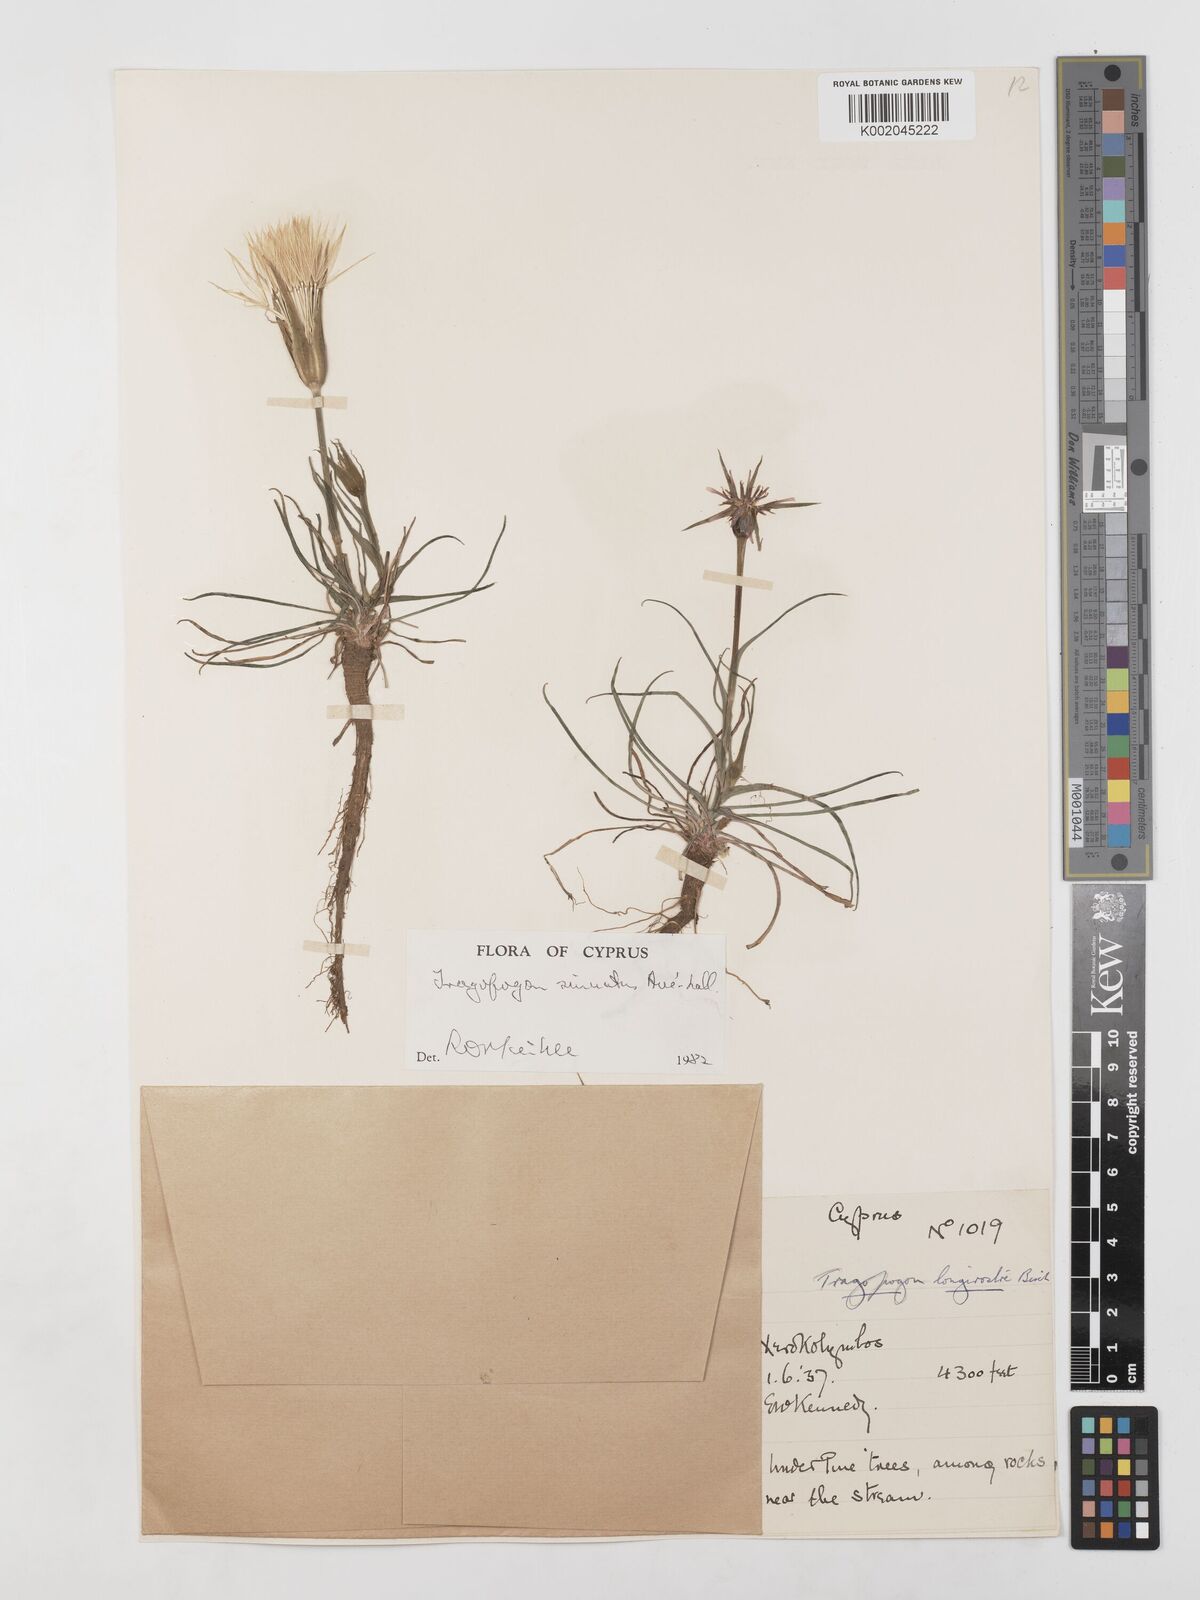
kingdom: Plantae
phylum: Tracheophyta
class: Magnoliopsida
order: Asterales
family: Asteraceae
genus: Tragopogon
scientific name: Tragopogon porrifolius
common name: Salsify
